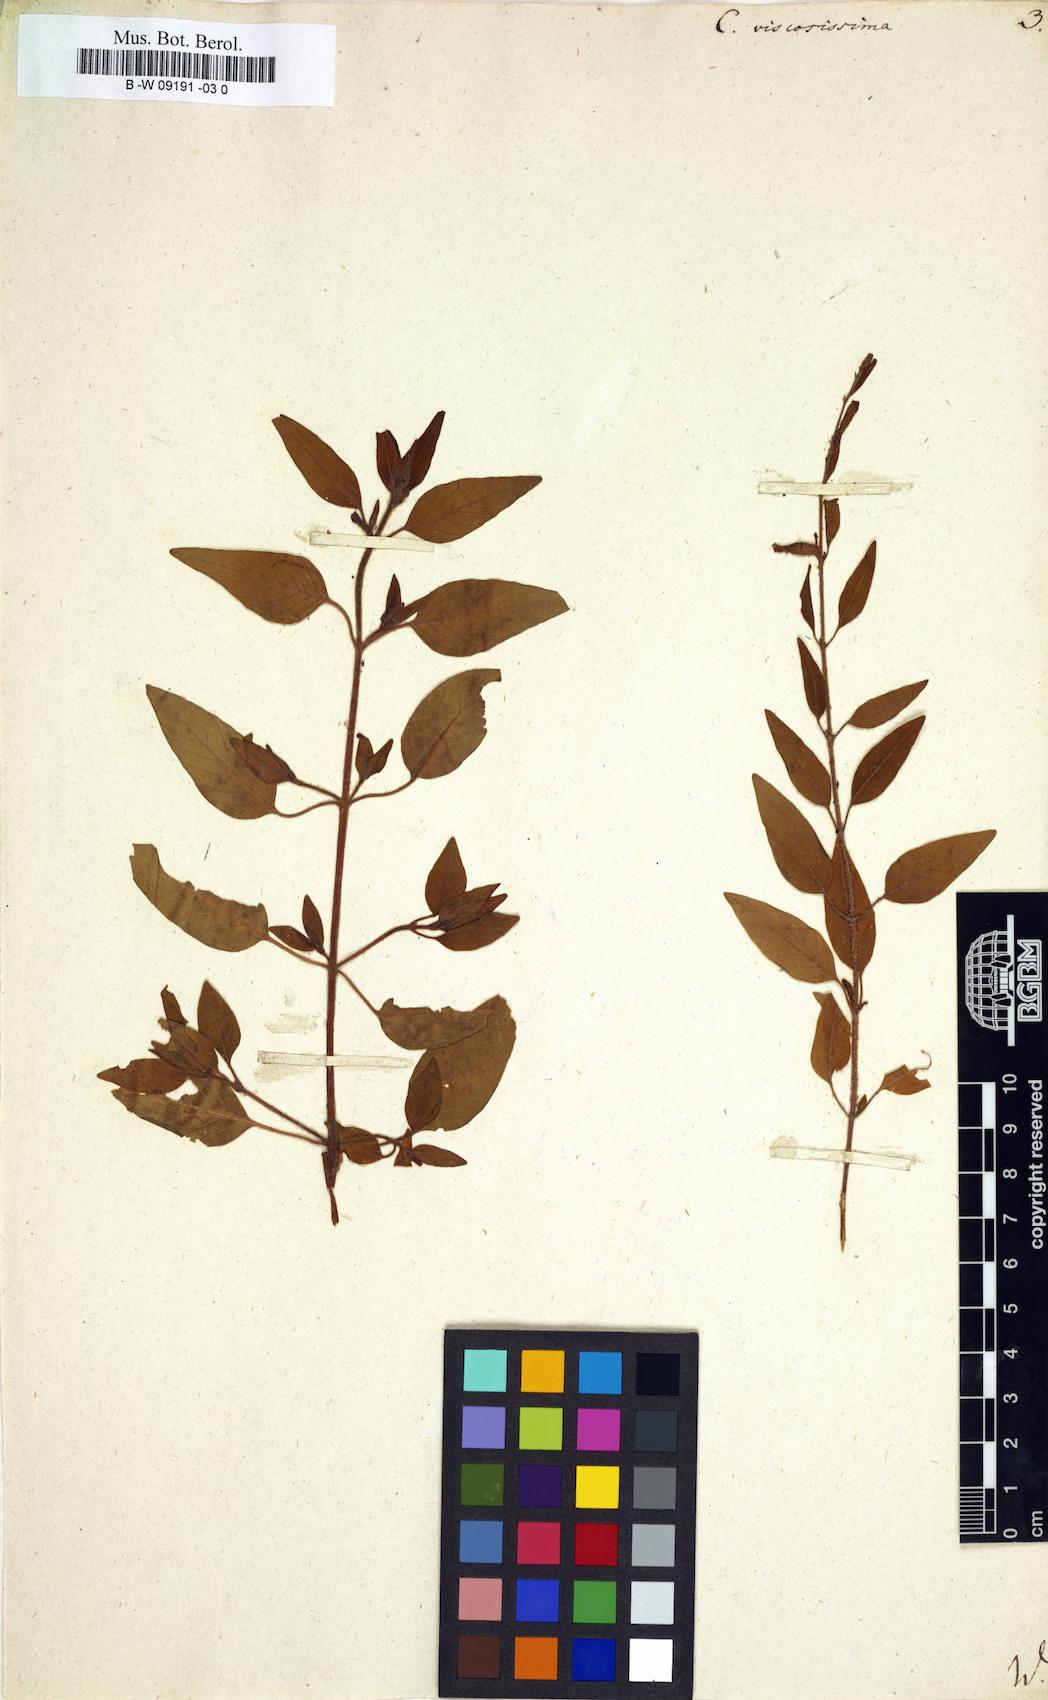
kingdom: Plantae
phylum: Tracheophyta
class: Magnoliopsida
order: Myrtales
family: Lythraceae
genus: Cuphea
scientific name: Cuphea lutescens
